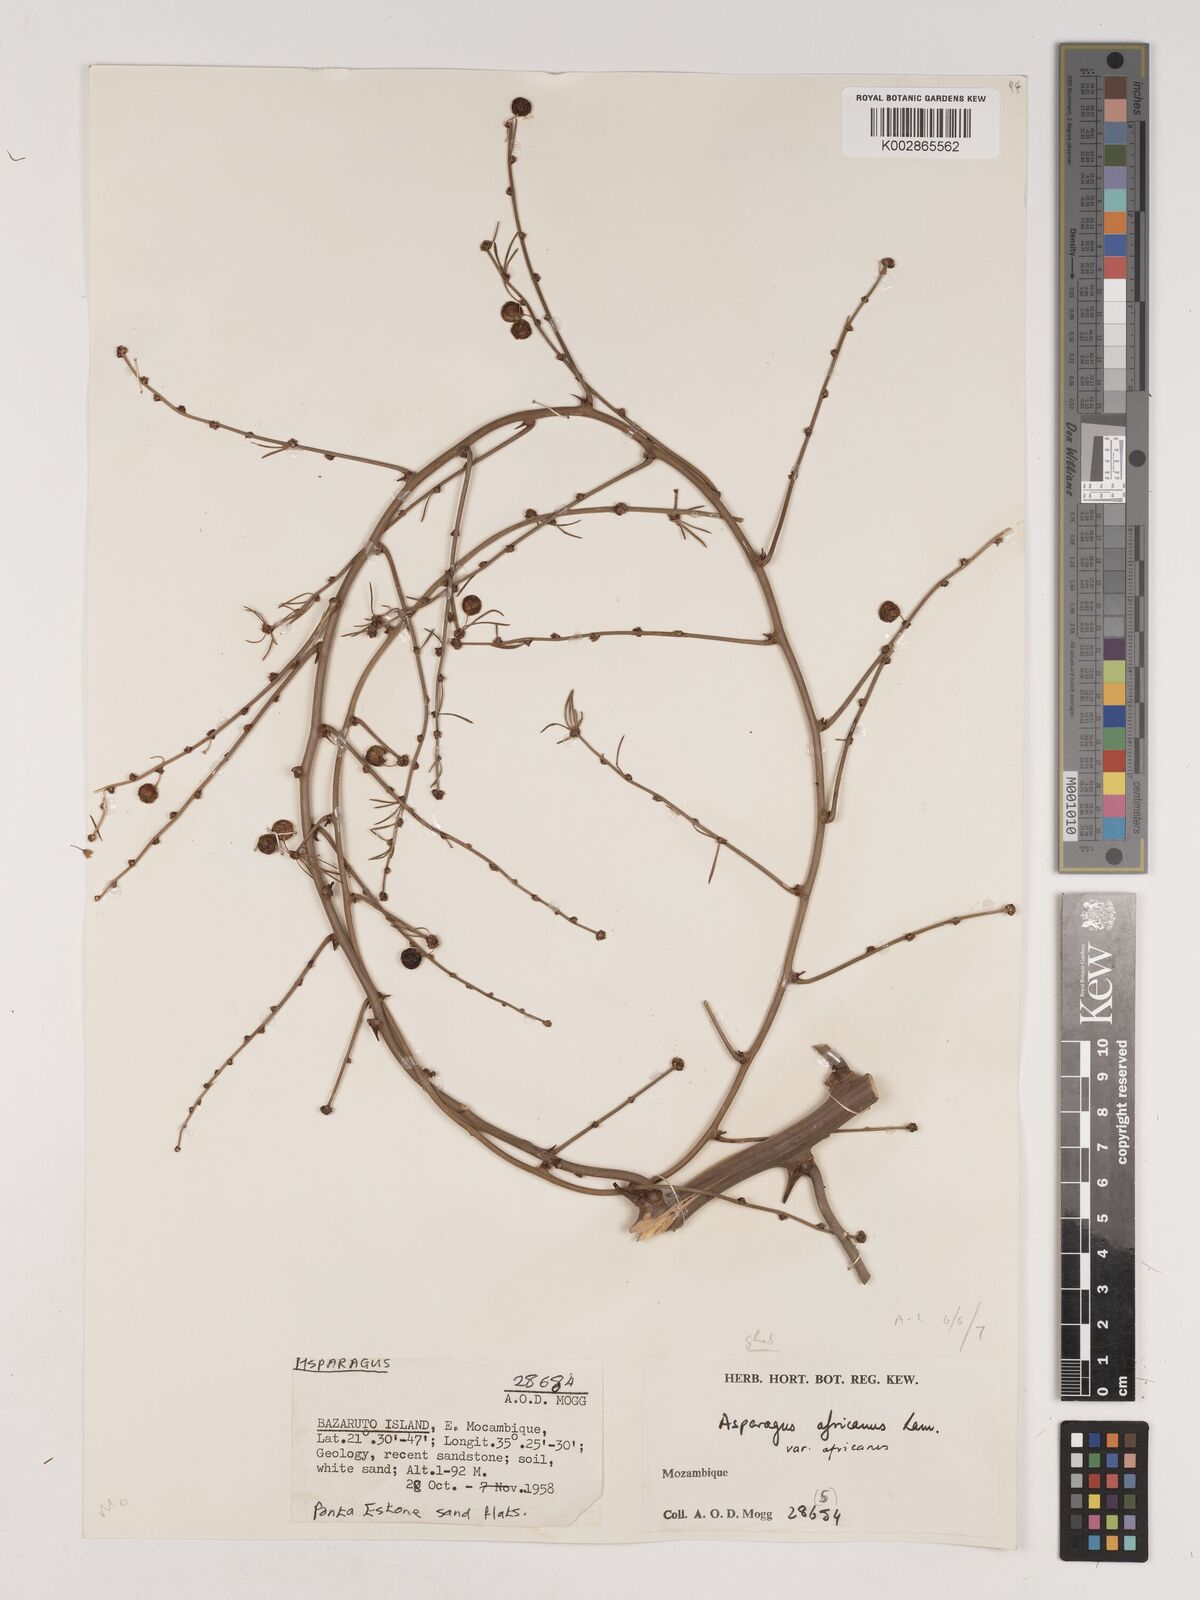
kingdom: Plantae
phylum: Tracheophyta
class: Liliopsida
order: Asparagales
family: Asparagaceae
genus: Asparagus
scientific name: Asparagus africanus
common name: Asparagus-fern
